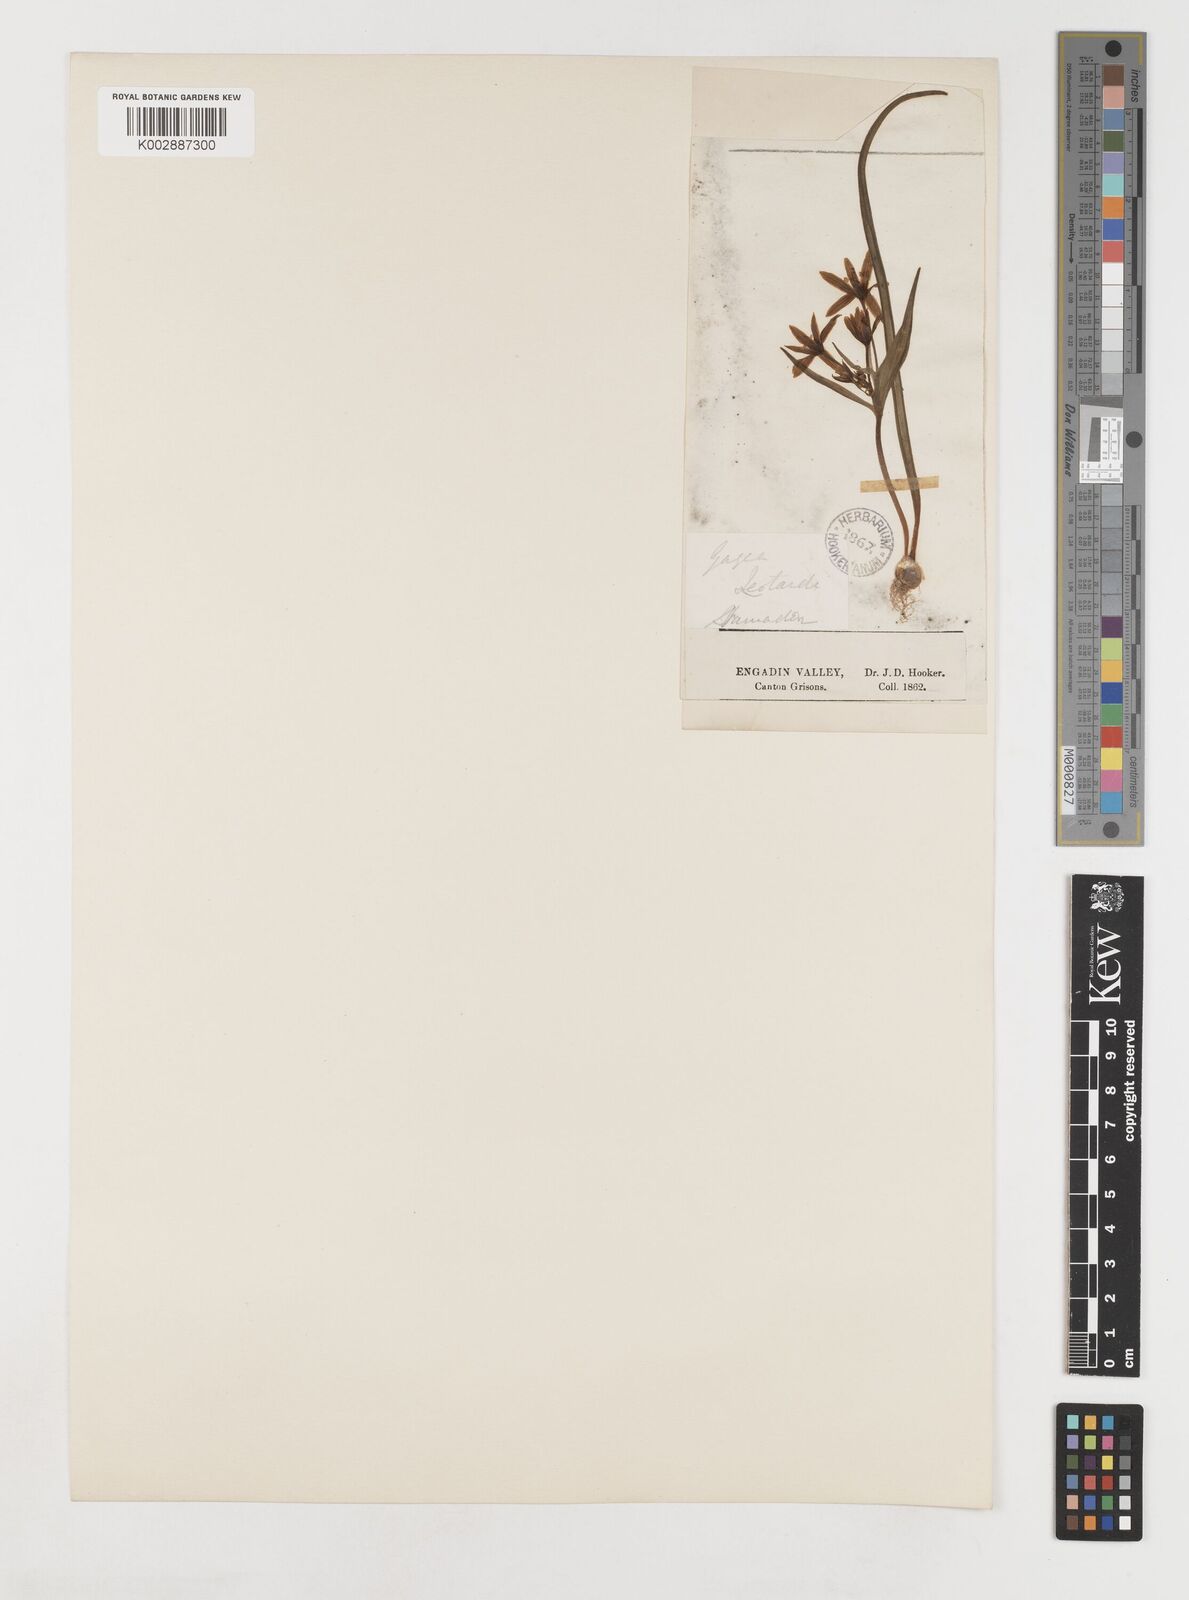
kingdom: Plantae
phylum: Tracheophyta
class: Liliopsida
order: Liliales
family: Liliaceae
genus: Gagea
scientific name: Gagea bohemica
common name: Early star-of-bethlehem
